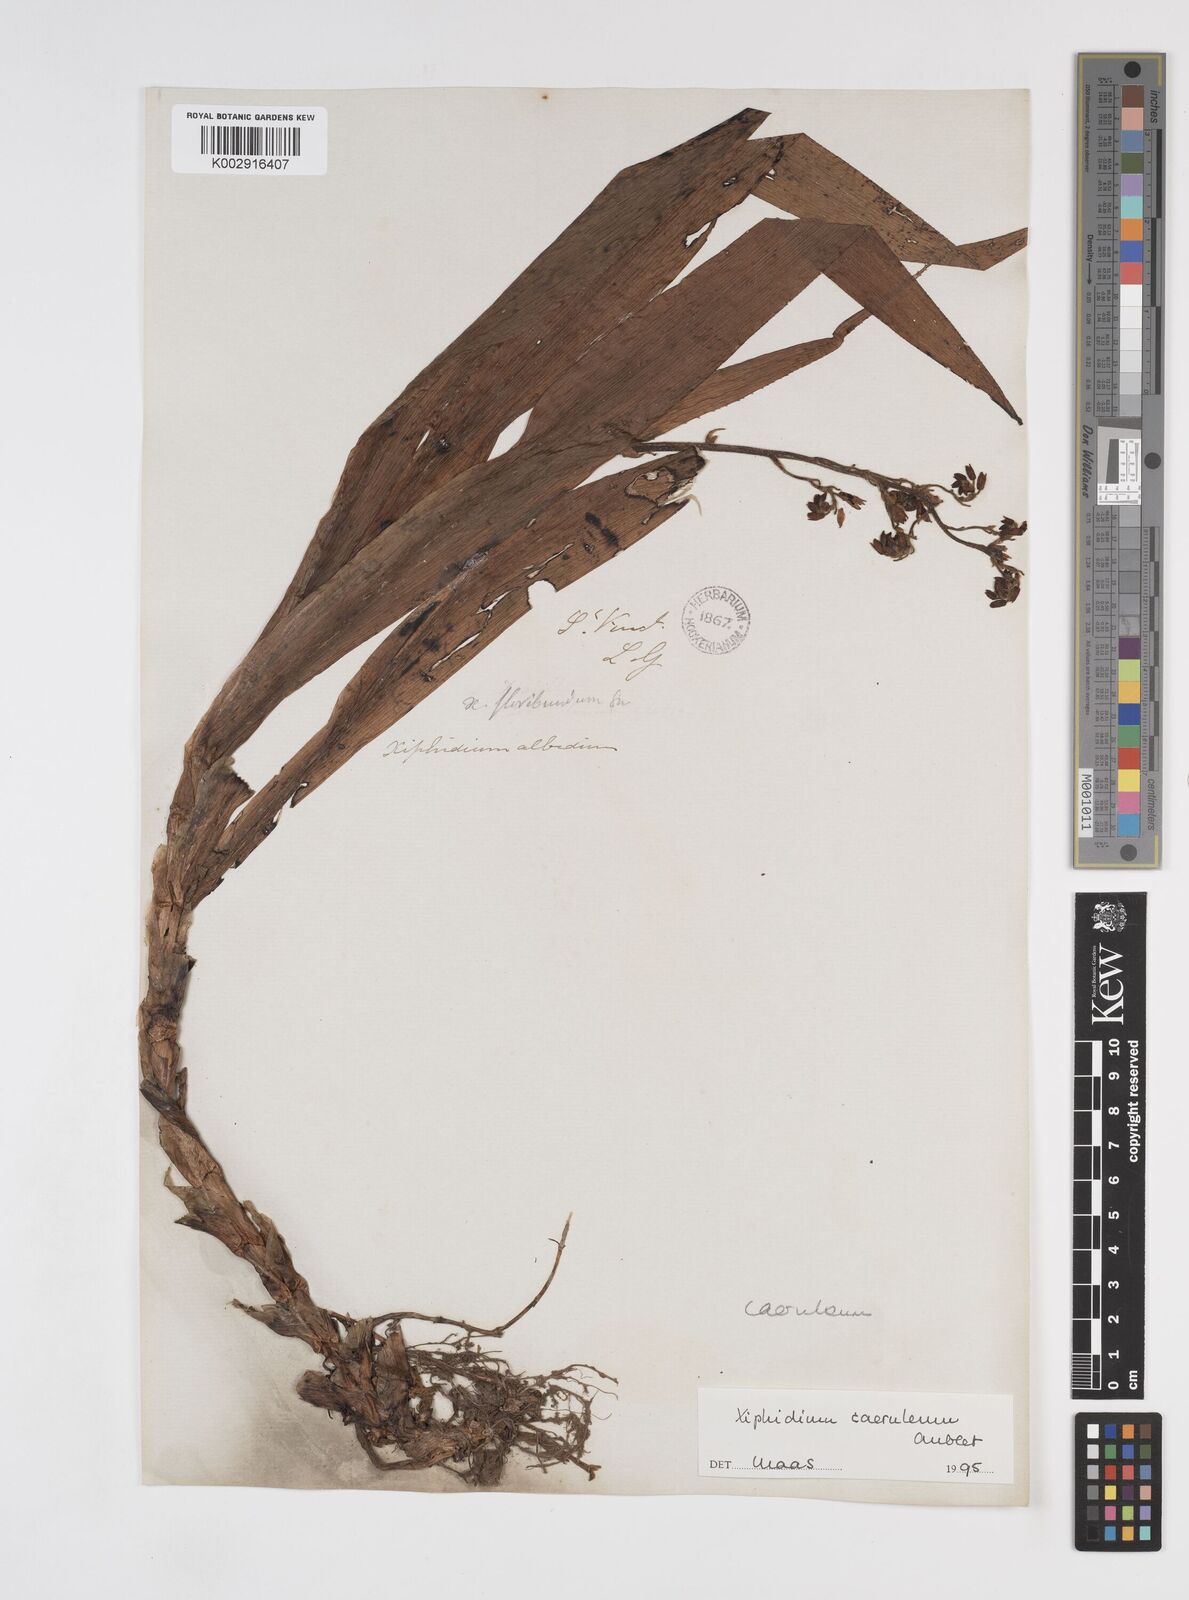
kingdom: Plantae
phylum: Tracheophyta
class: Liliopsida
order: Commelinales
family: Haemodoraceae
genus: Xiphidium
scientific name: Xiphidium caeruleum
